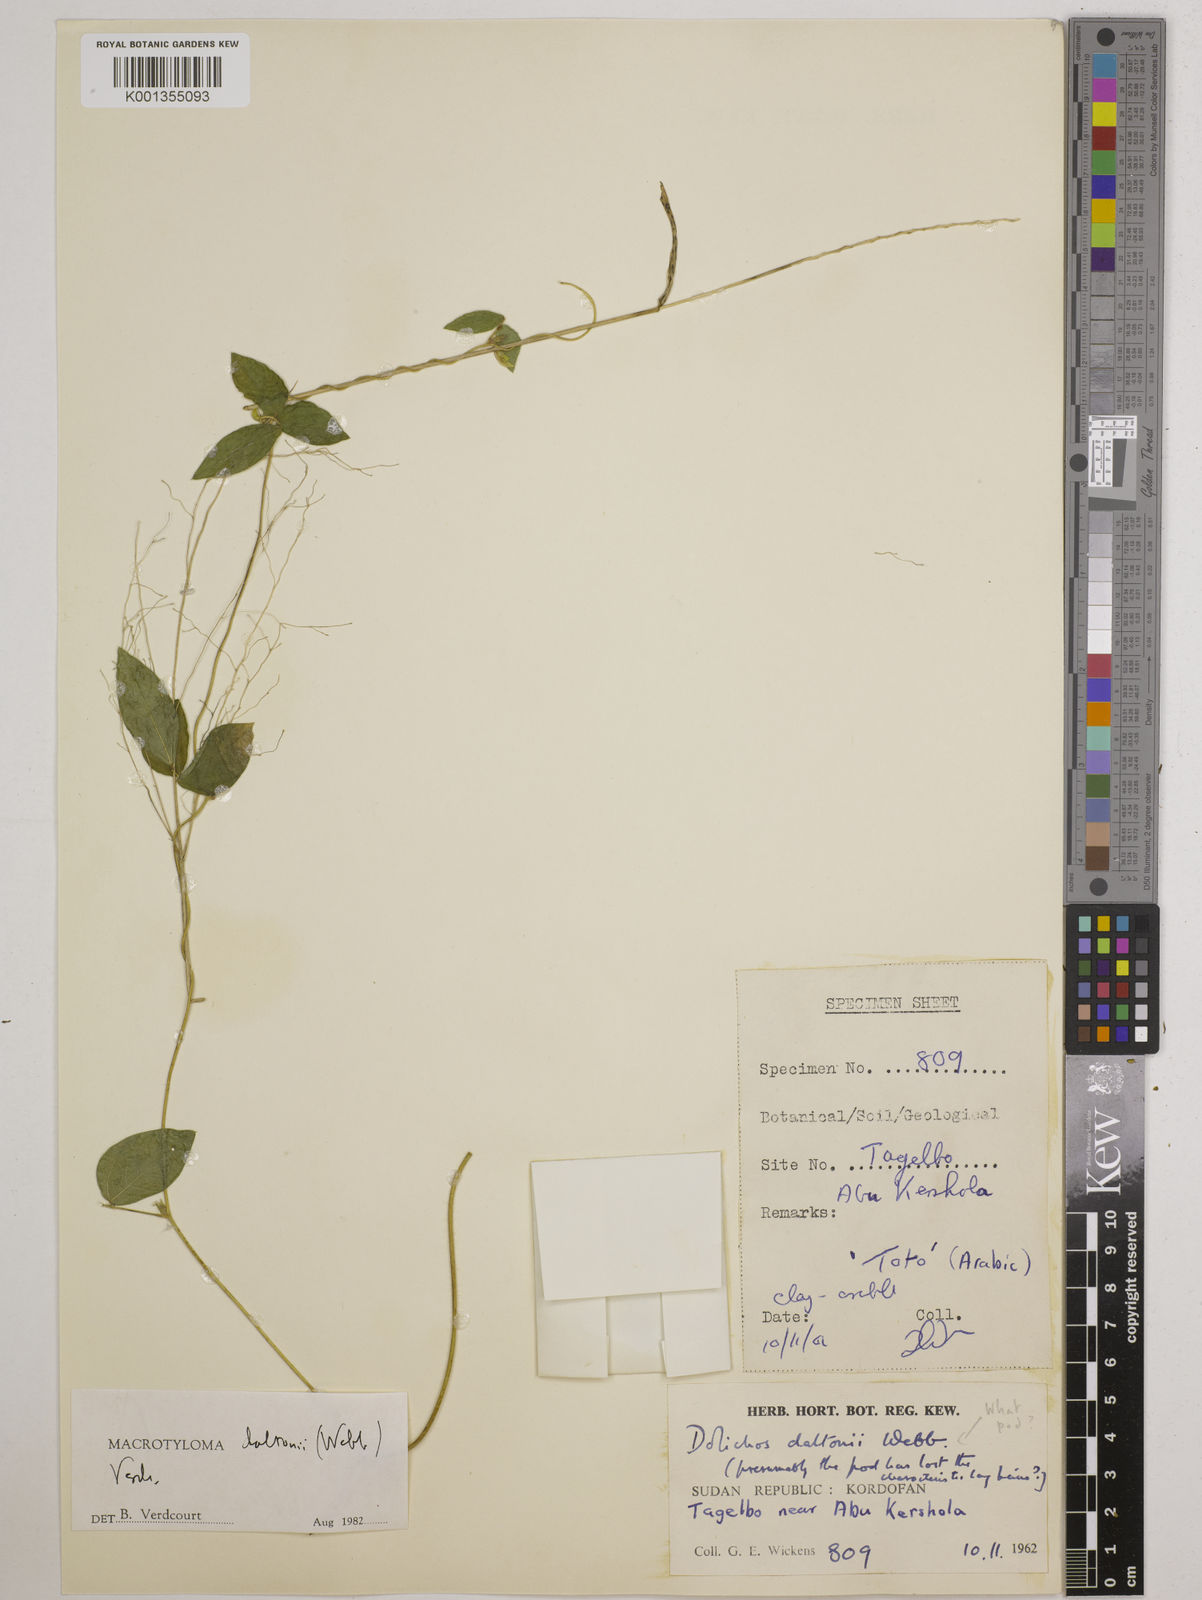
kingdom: Plantae
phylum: Tracheophyta
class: Magnoliopsida
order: Fabales
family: Fabaceae
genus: Macrotyloma
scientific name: Macrotyloma daltonii
